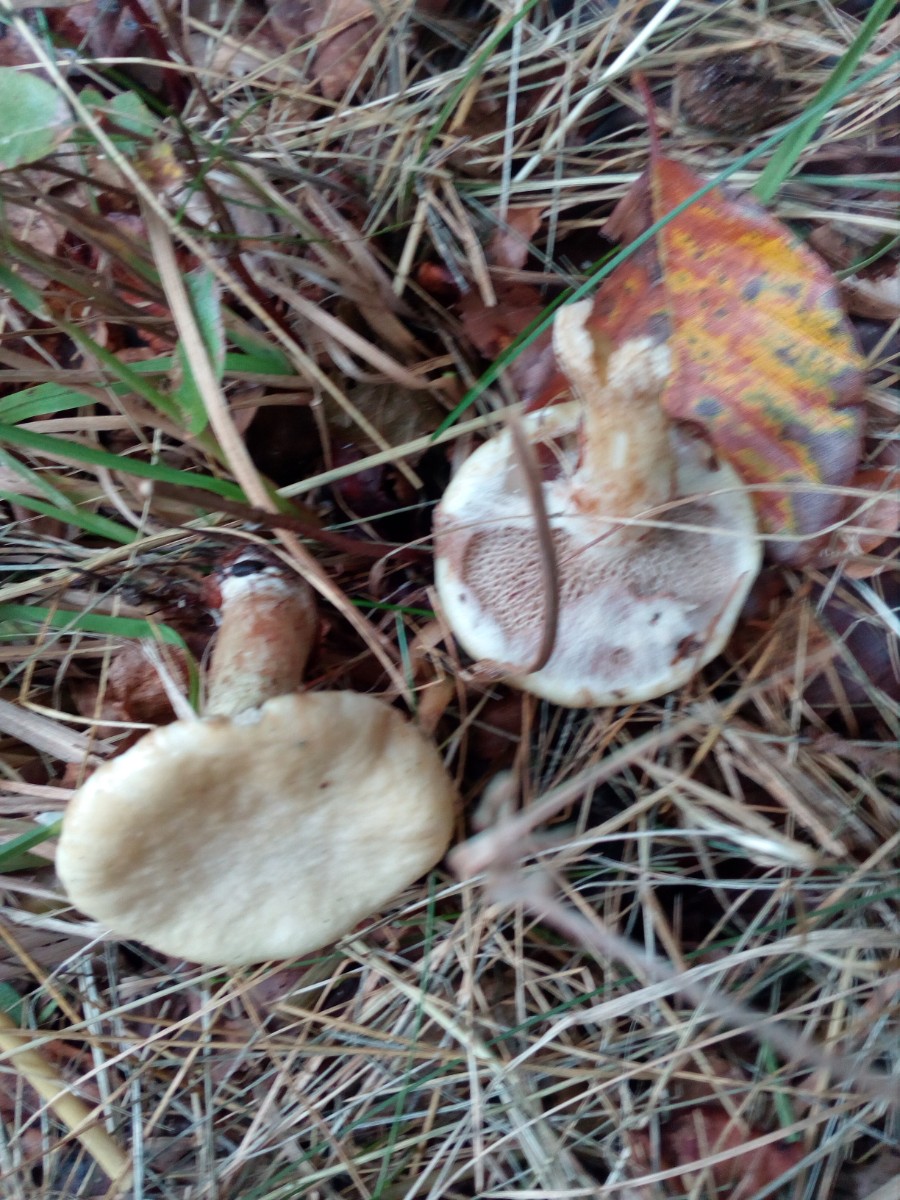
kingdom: Fungi
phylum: Basidiomycota
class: Agaricomycetes
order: Boletales
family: Suillaceae
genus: Suillus
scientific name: Suillus viscidus
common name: olivengrå slimrørhat
